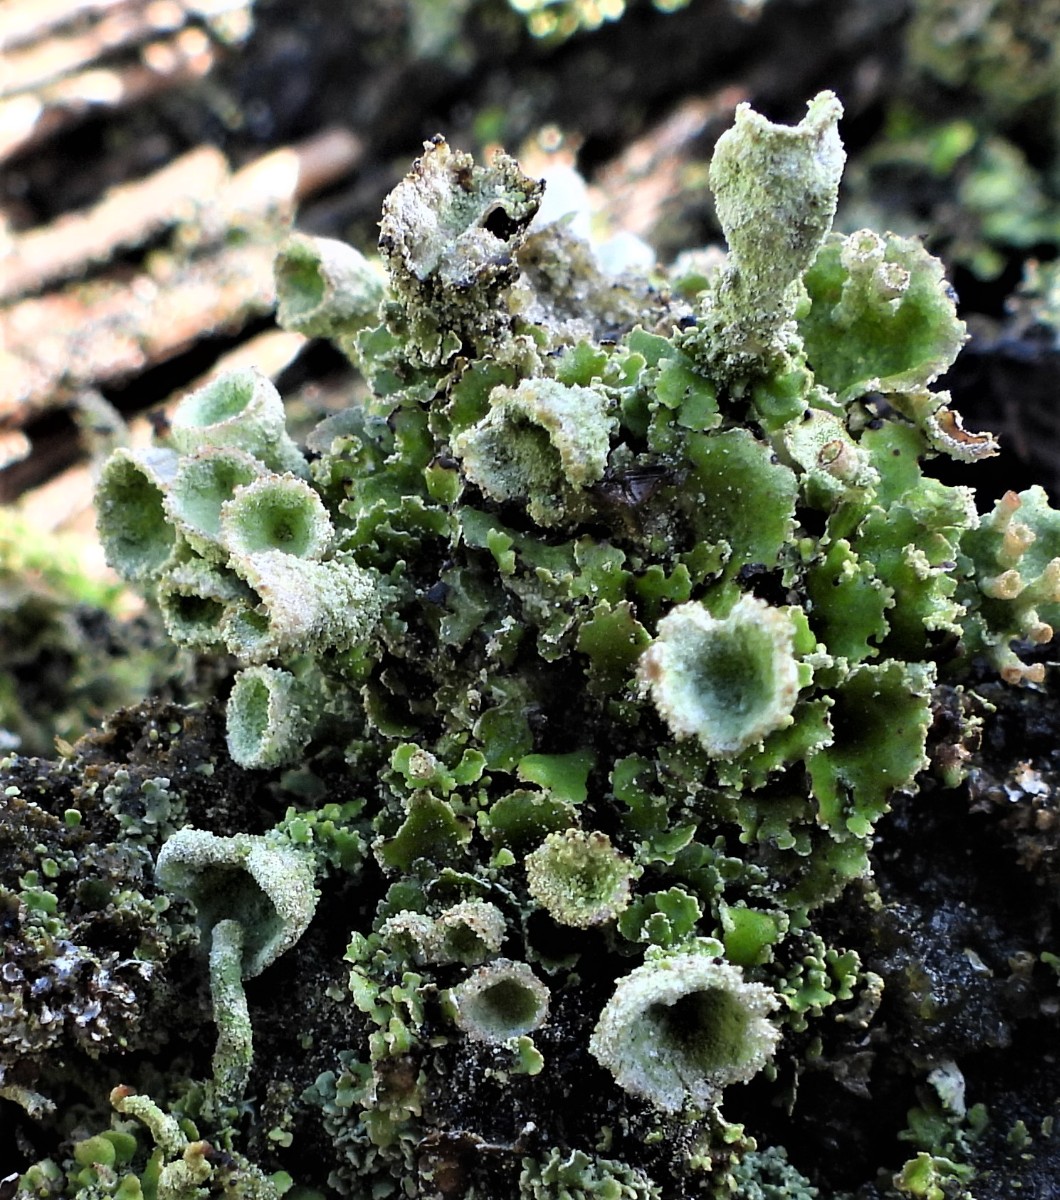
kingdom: Fungi
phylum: Ascomycota
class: Lecanoromycetes
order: Lecanorales
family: Cladoniaceae
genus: Cladonia
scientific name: Cladonia humilis
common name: lav bægerlav
